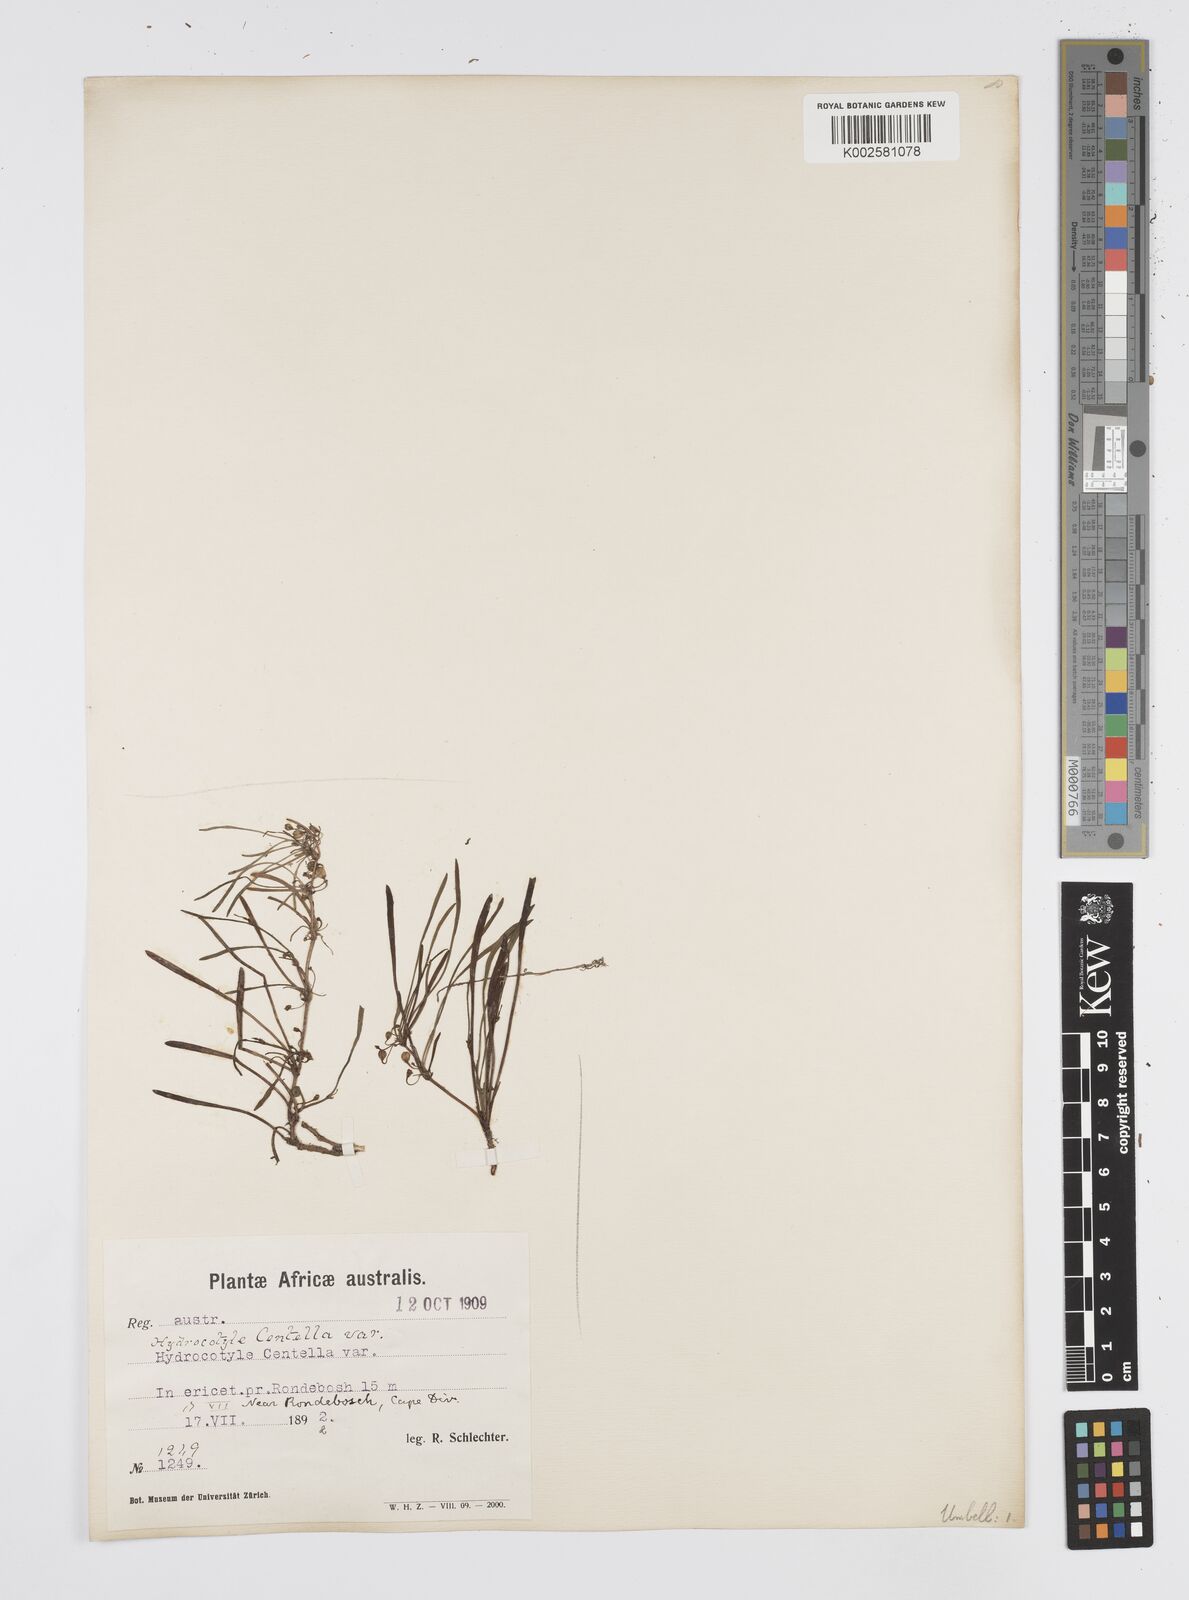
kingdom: Plantae
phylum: Tracheophyta
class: Magnoliopsida
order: Apiales
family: Apiaceae
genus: Centella
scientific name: Centella affinis
